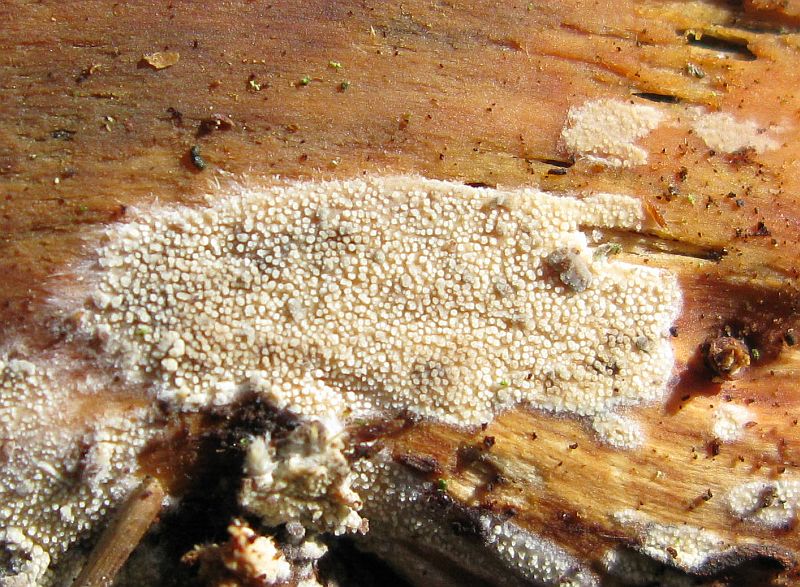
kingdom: Fungi
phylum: Basidiomycota
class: Agaricomycetes
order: Hymenochaetales
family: Rickenellaceae
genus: Resinicium
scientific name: Resinicium bicolor
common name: almindelig vokstand
